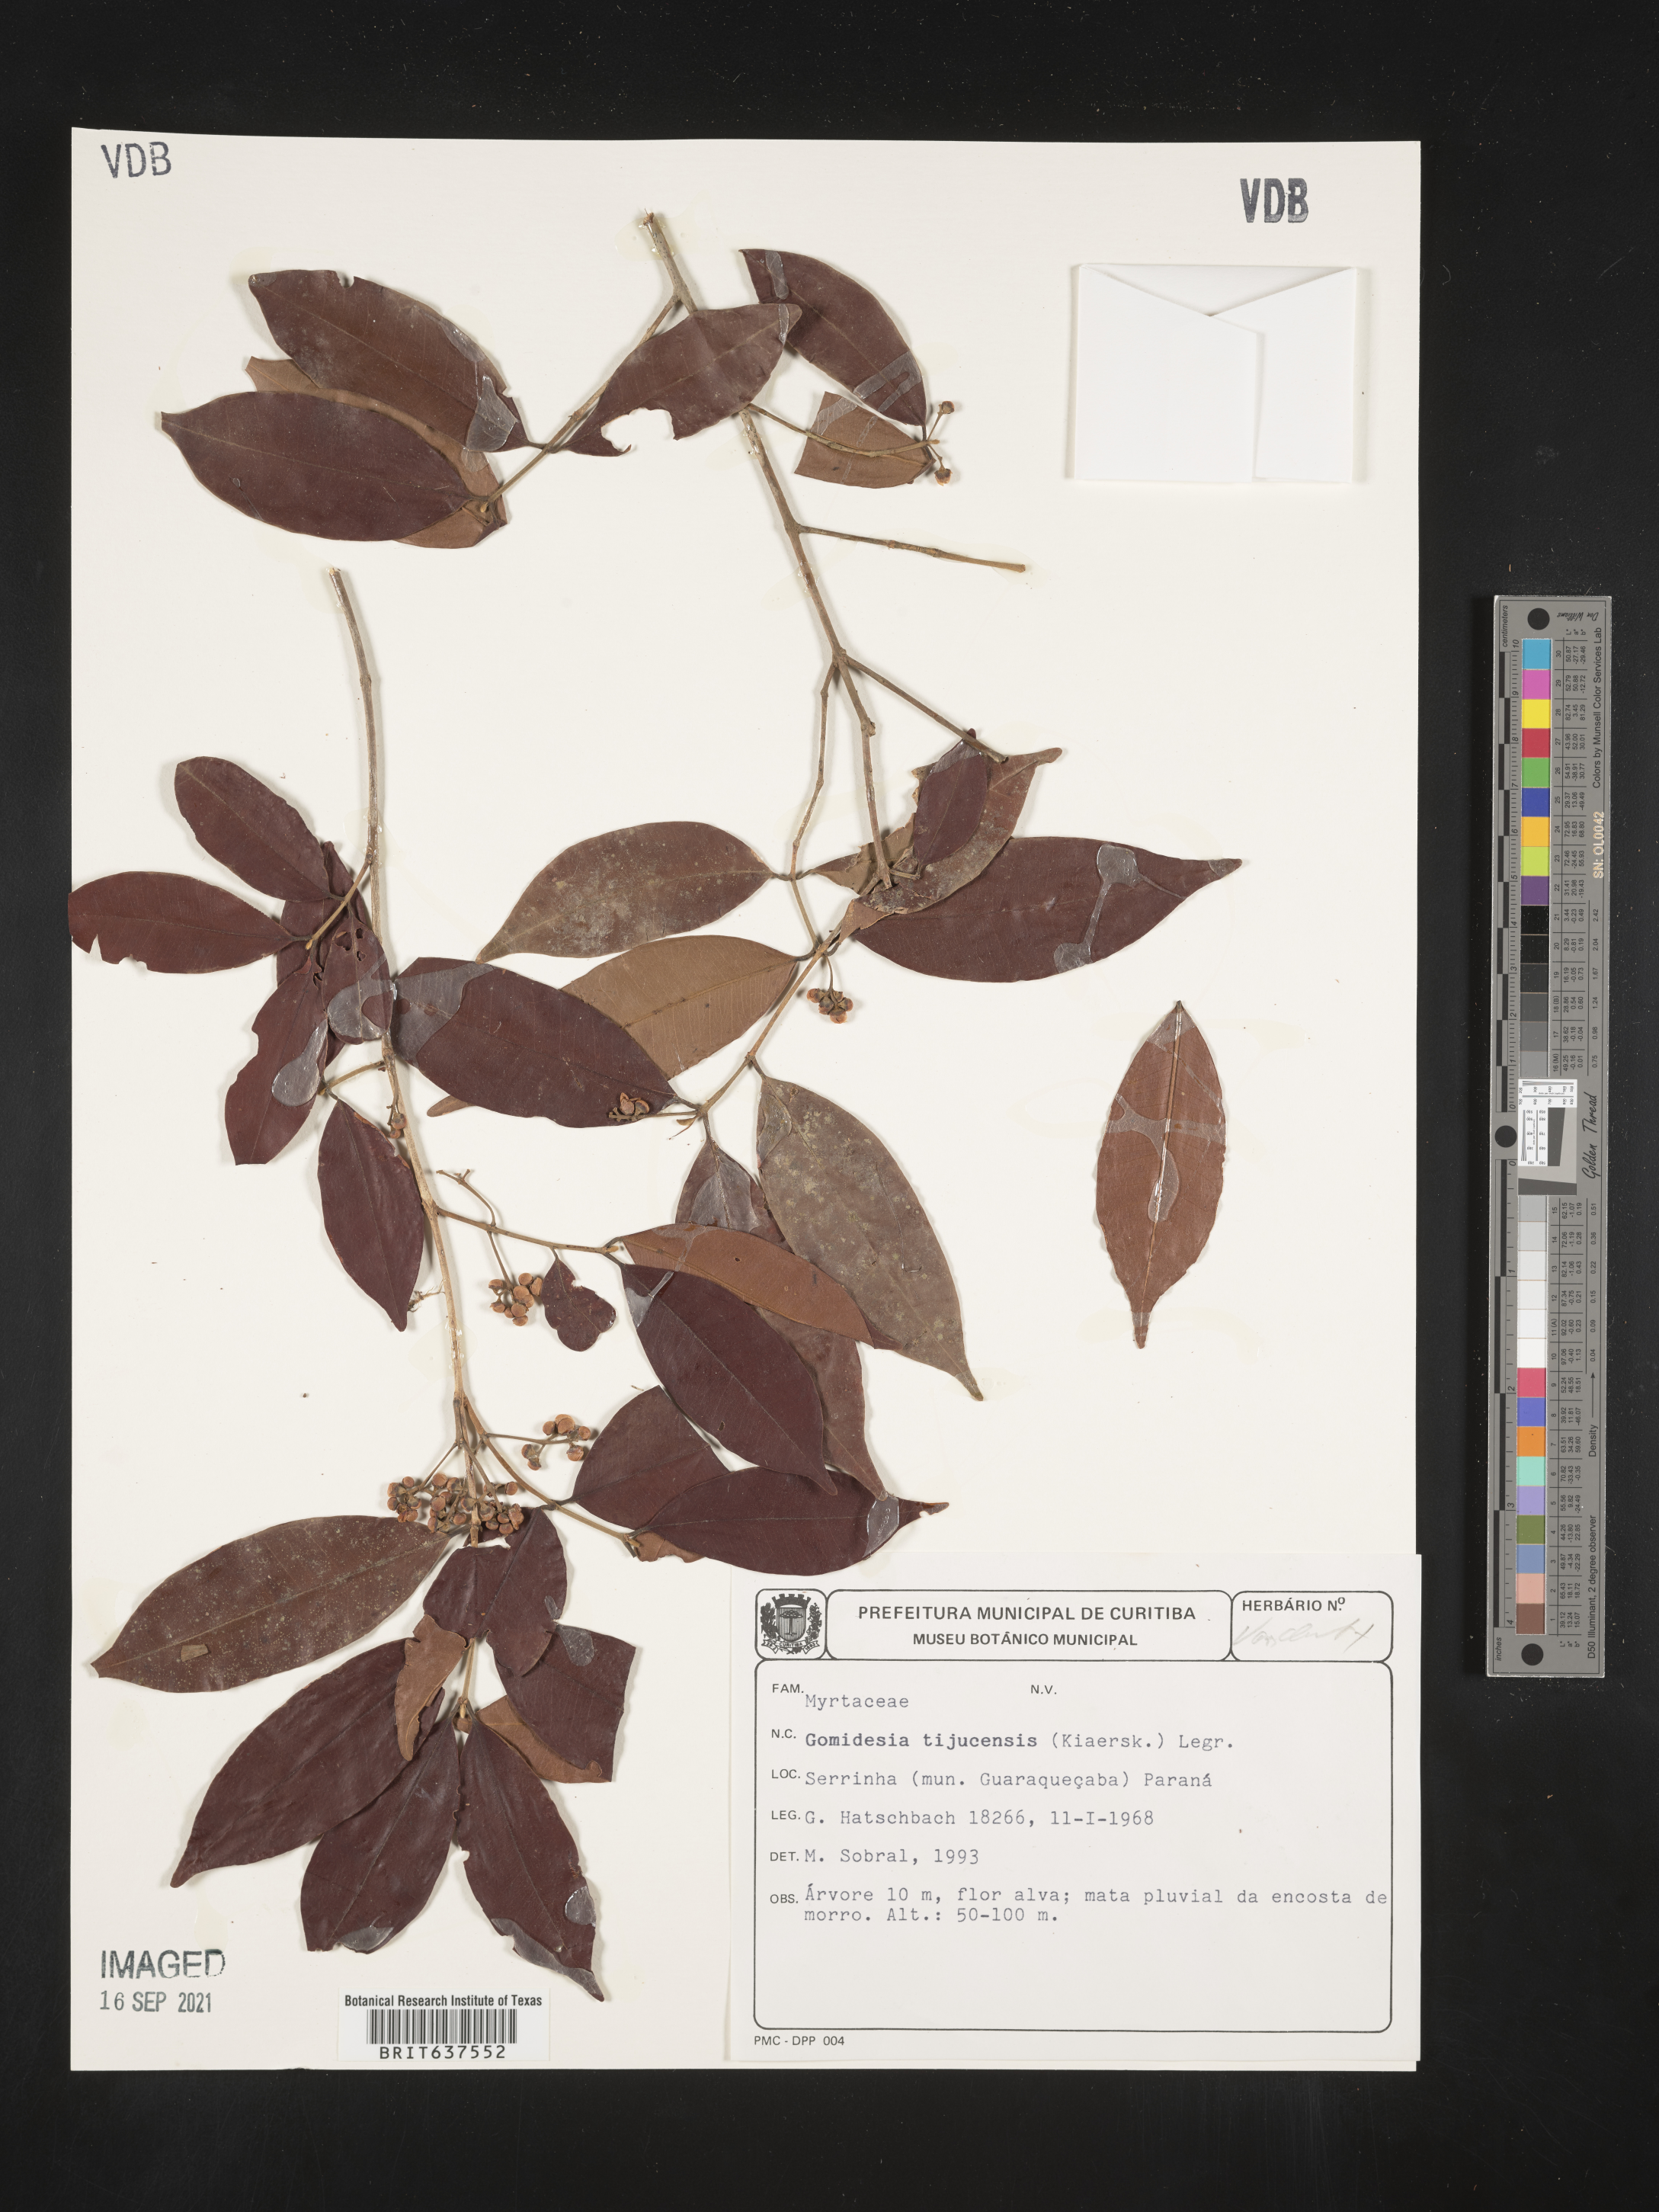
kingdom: Plantae
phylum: Tracheophyta
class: Magnoliopsida
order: Myrtales
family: Myrtaceae
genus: Myrcia
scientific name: Myrcia
